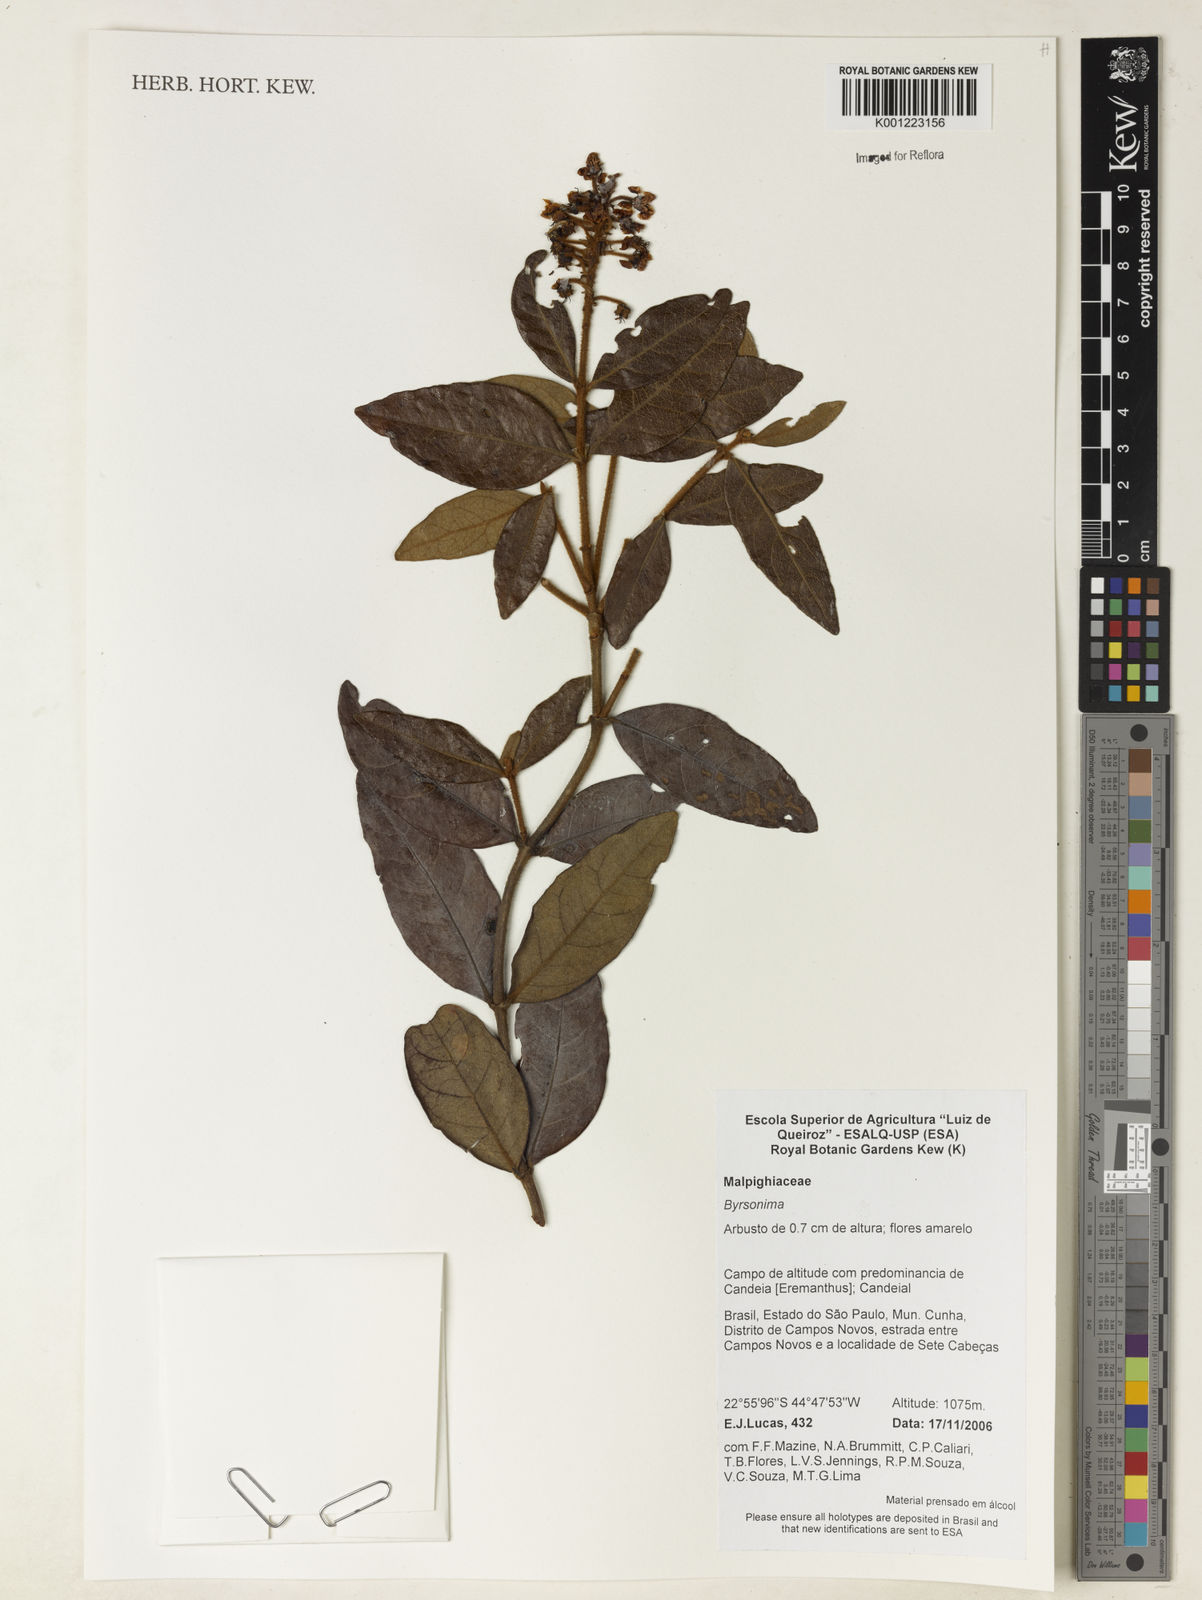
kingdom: Plantae
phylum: Tracheophyta
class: Magnoliopsida
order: Malpighiales
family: Malpighiaceae
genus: Byrsonima
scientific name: Byrsonima
